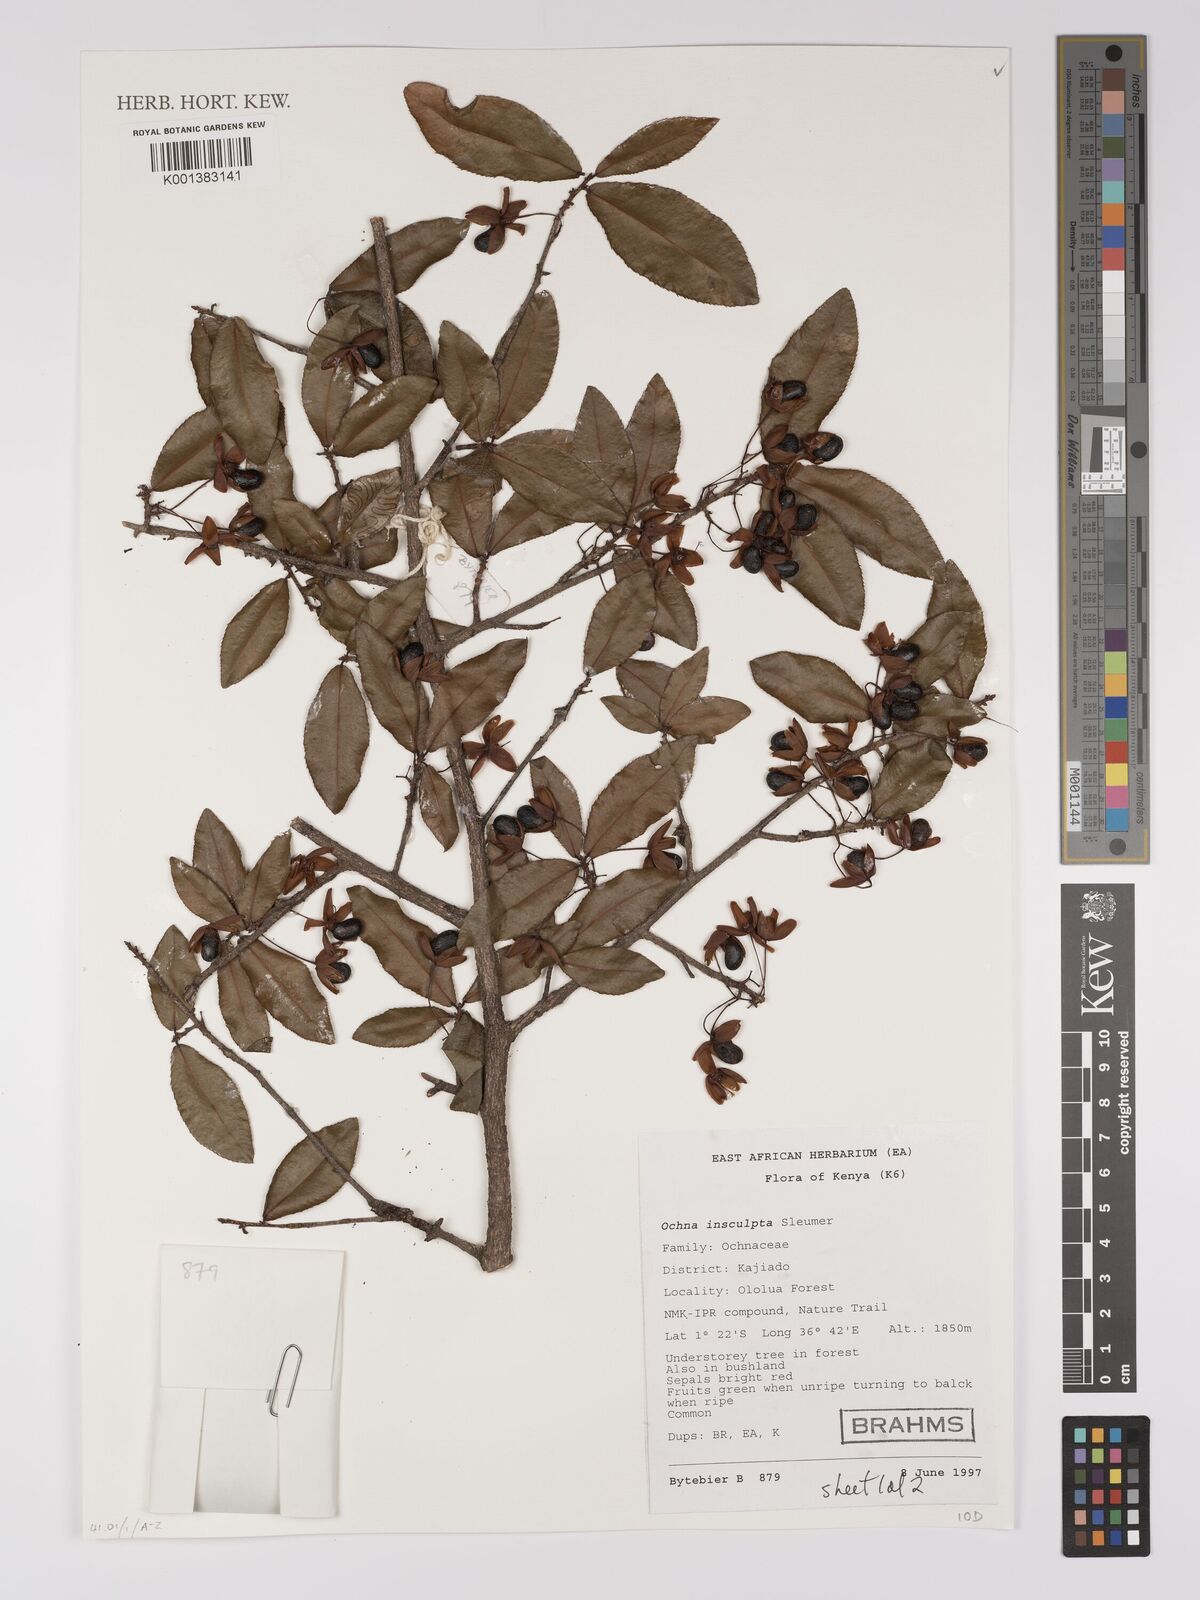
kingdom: Plantae
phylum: Tracheophyta
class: Magnoliopsida
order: Malpighiales
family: Ochnaceae
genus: Ochna
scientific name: Ochna insculpta
